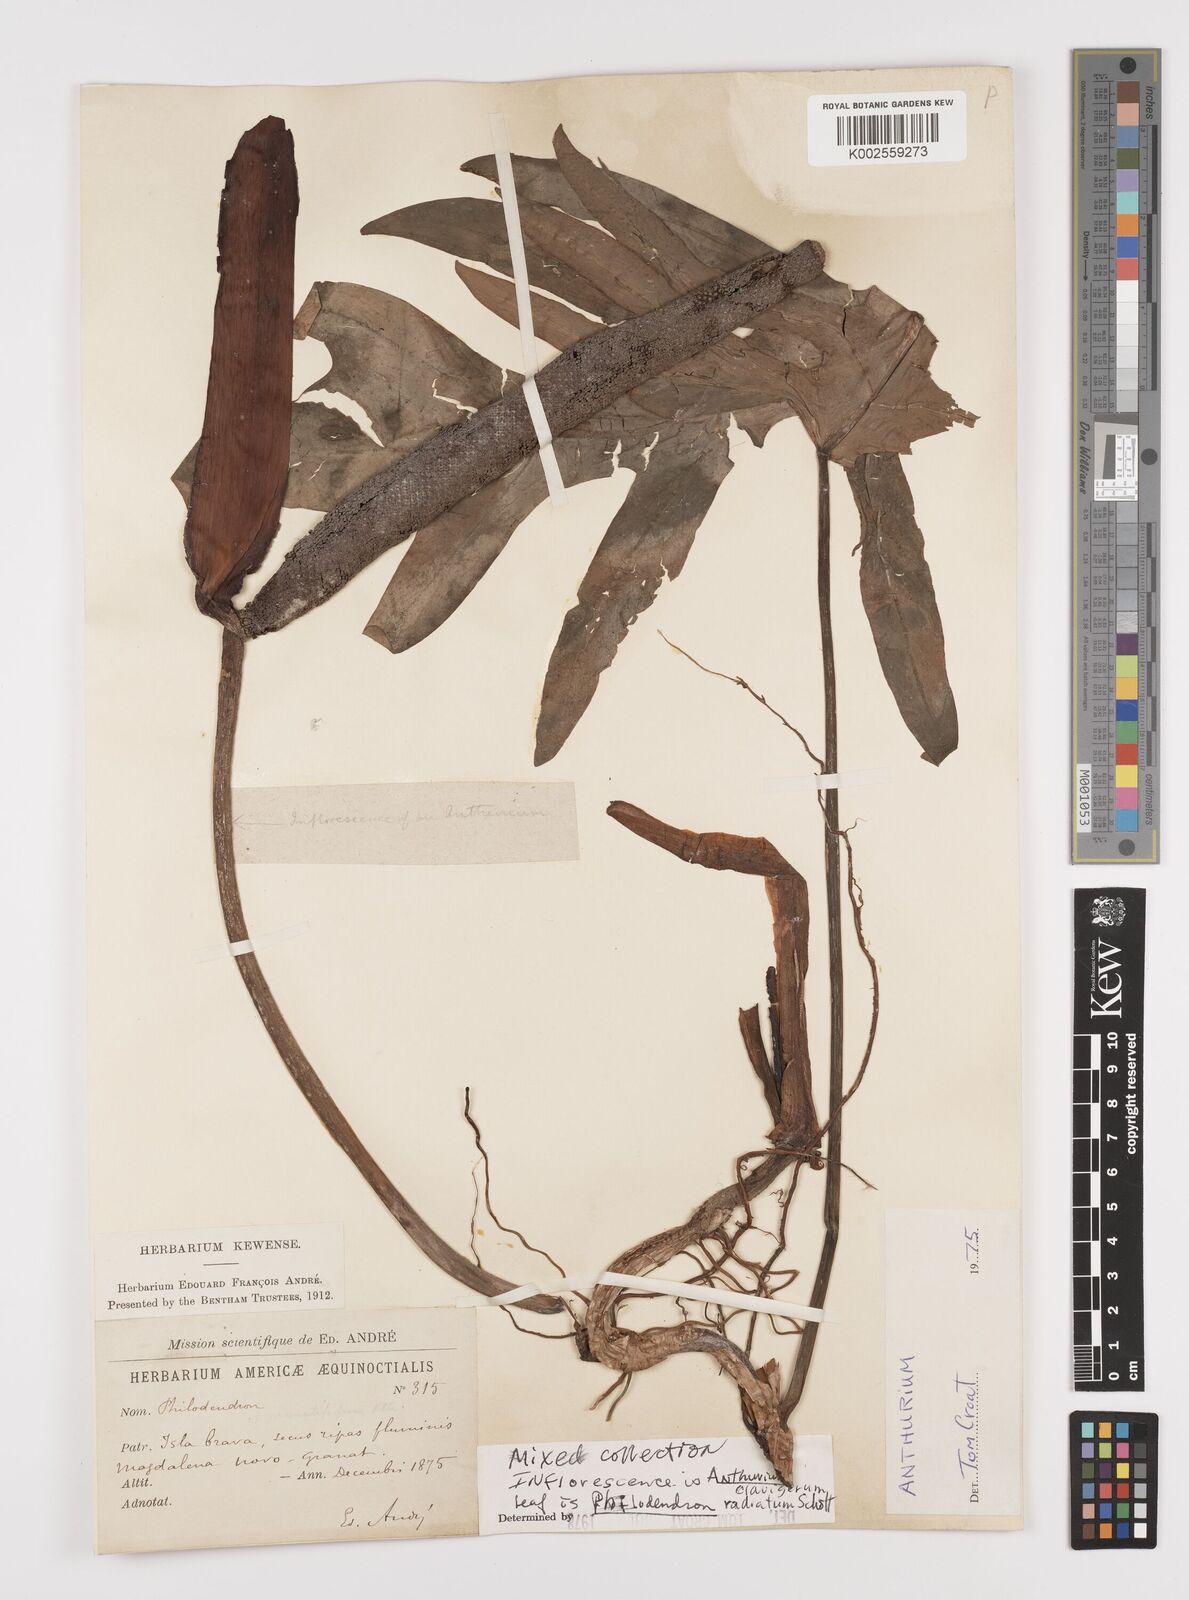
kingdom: Plantae
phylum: Tracheophyta
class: Liliopsida
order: Alismatales
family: Araceae
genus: Philodendron
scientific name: Philodendron radiatum
